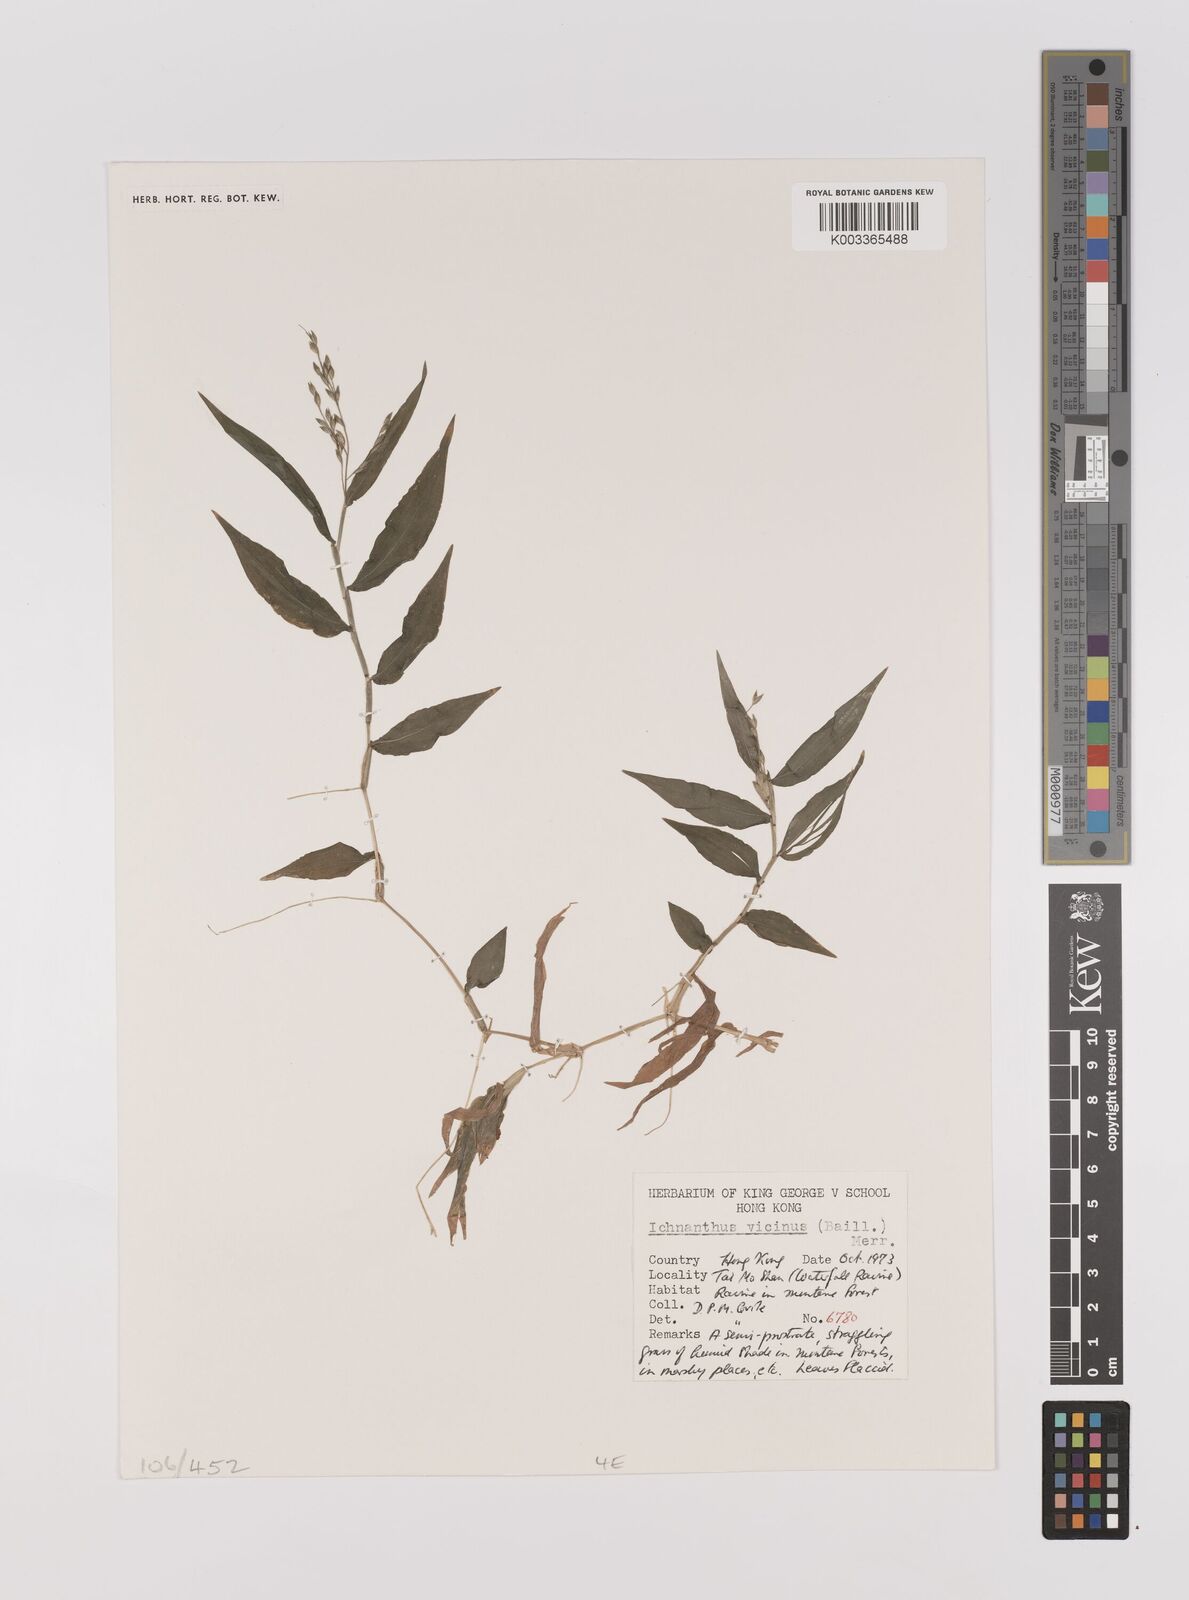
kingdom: Plantae
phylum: Tracheophyta
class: Liliopsida
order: Poales
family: Poaceae
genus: Ichnanthus
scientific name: Ichnanthus pallens
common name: Water grass
